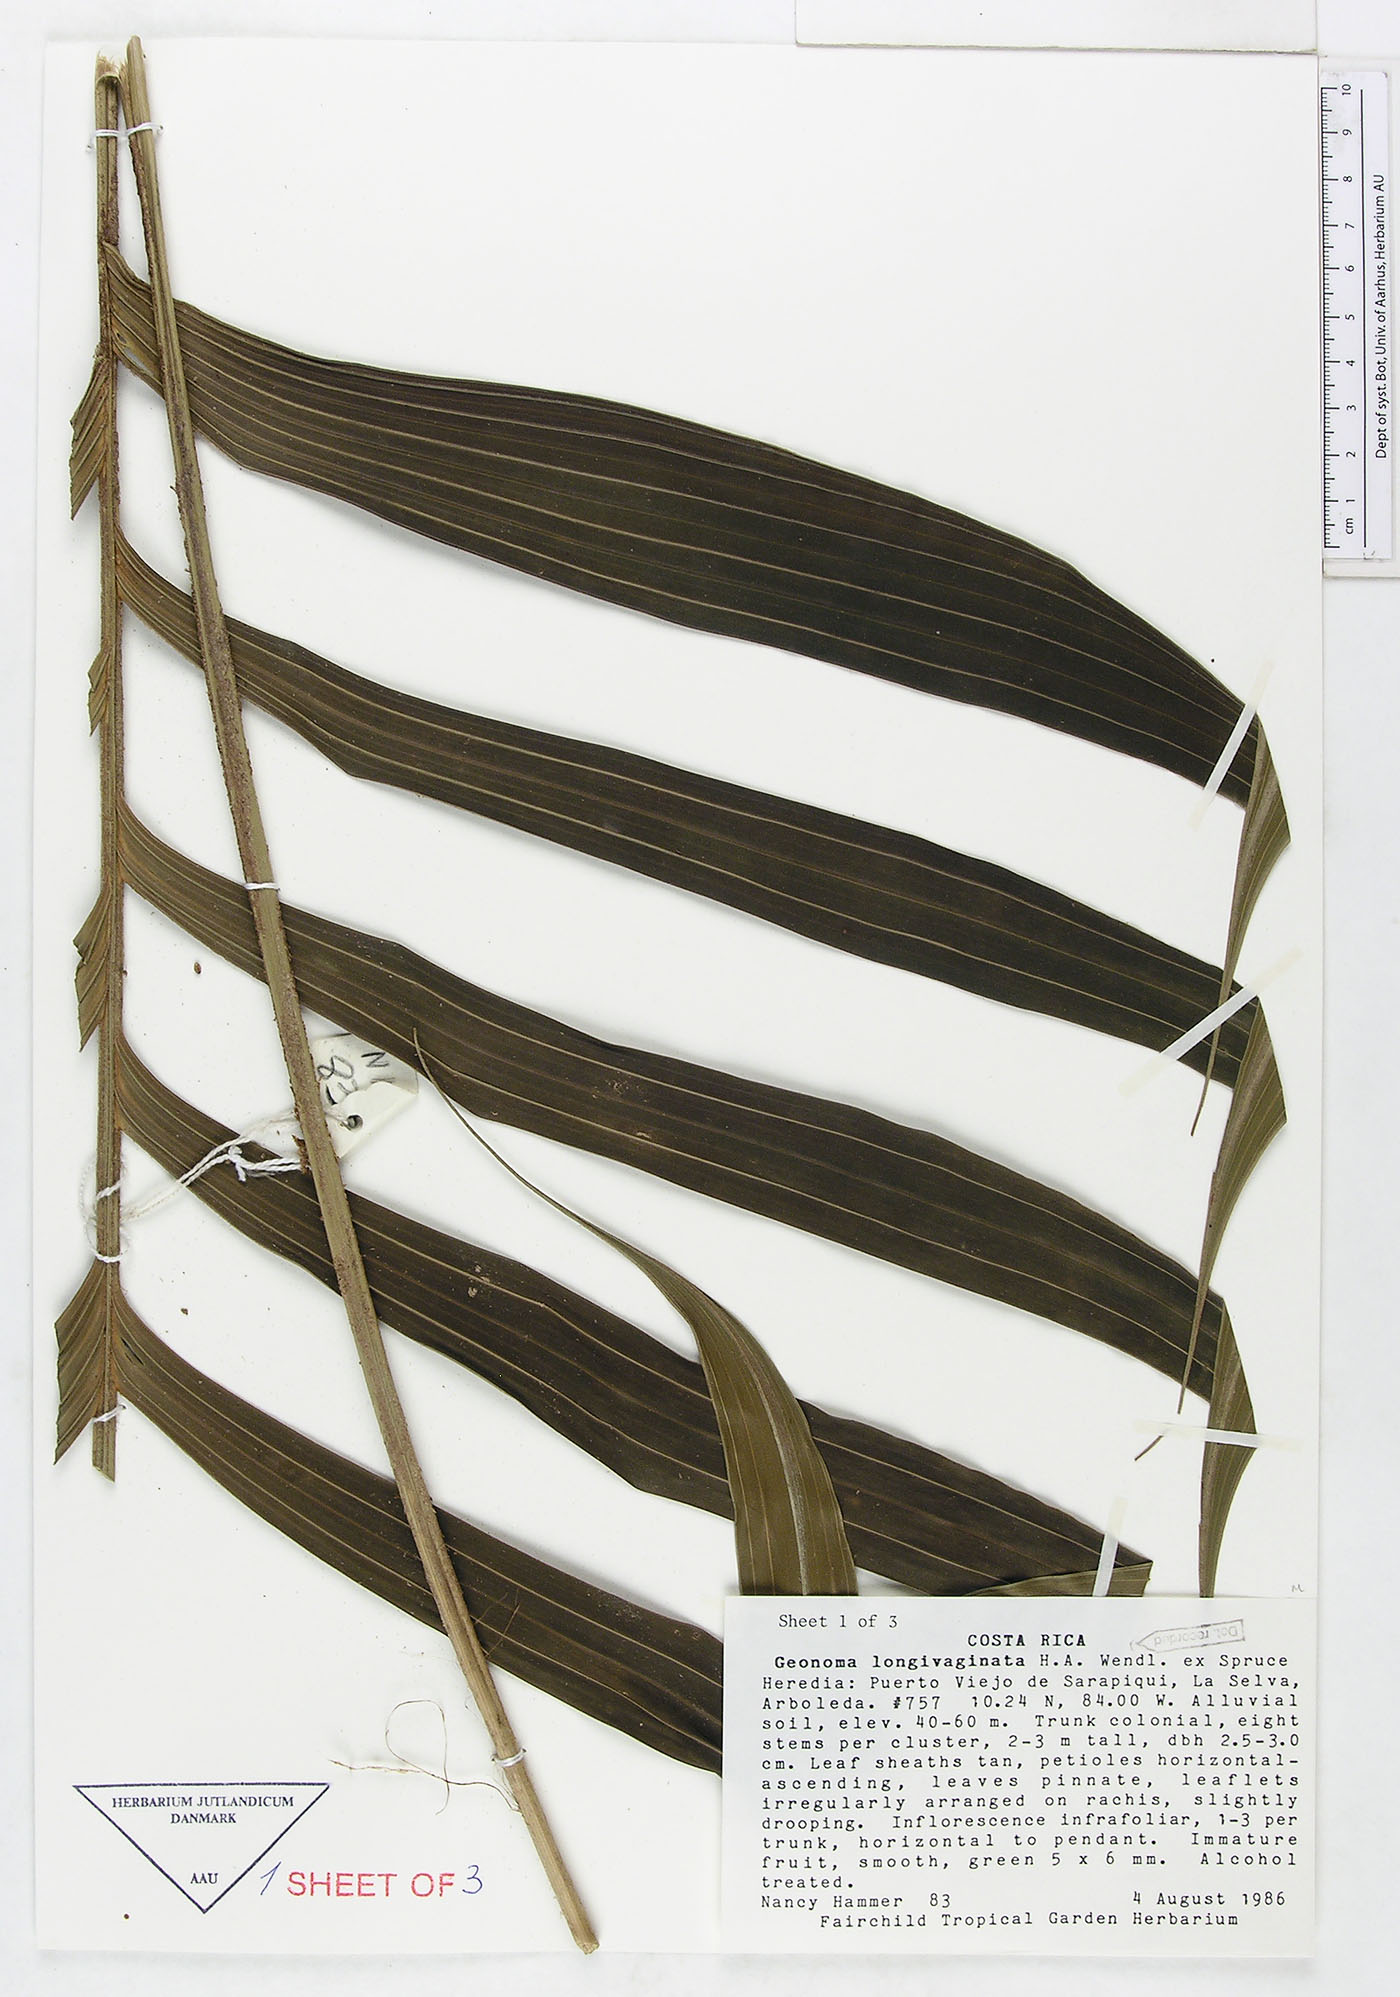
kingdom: Plantae
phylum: Tracheophyta
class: Liliopsida
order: Arecales
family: Arecaceae
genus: Geonoma
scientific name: Geonoma longivaginata
